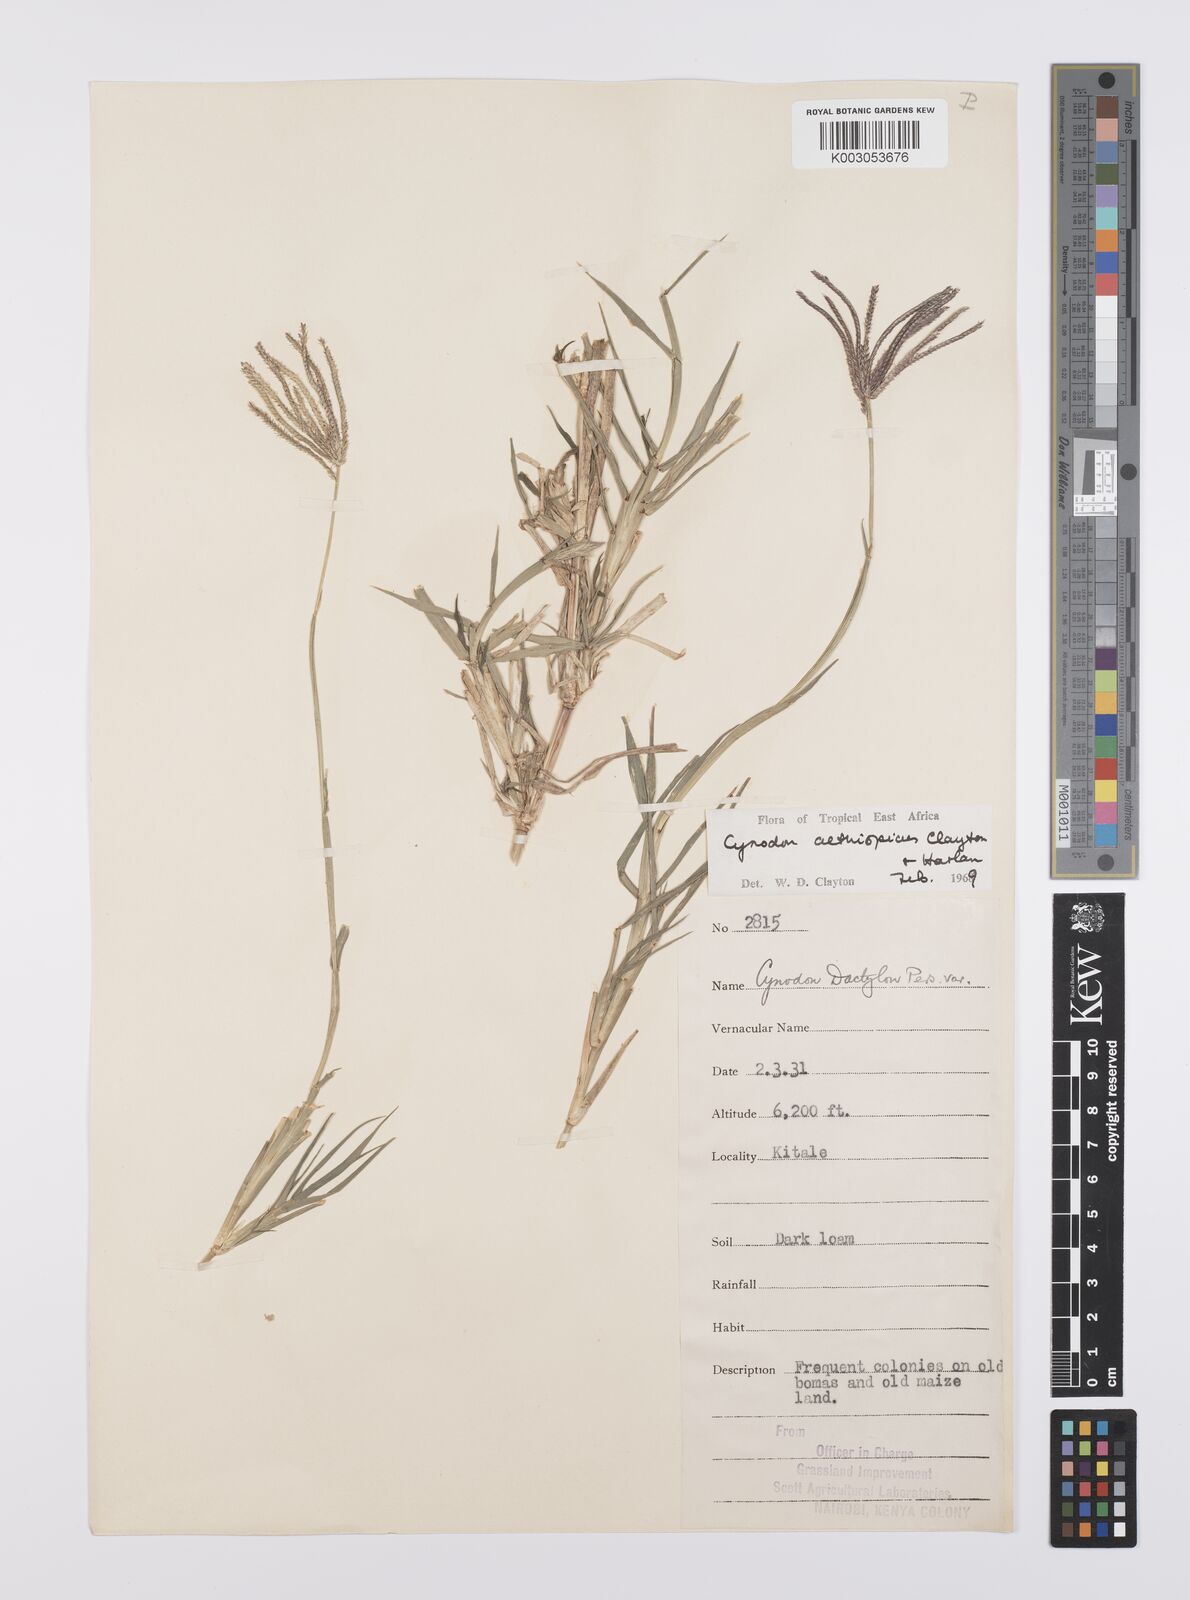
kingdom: Plantae
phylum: Tracheophyta
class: Liliopsida
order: Poales
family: Poaceae
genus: Cynodon
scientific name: Cynodon aethiopicus
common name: Ethiopian dogstooth grass
